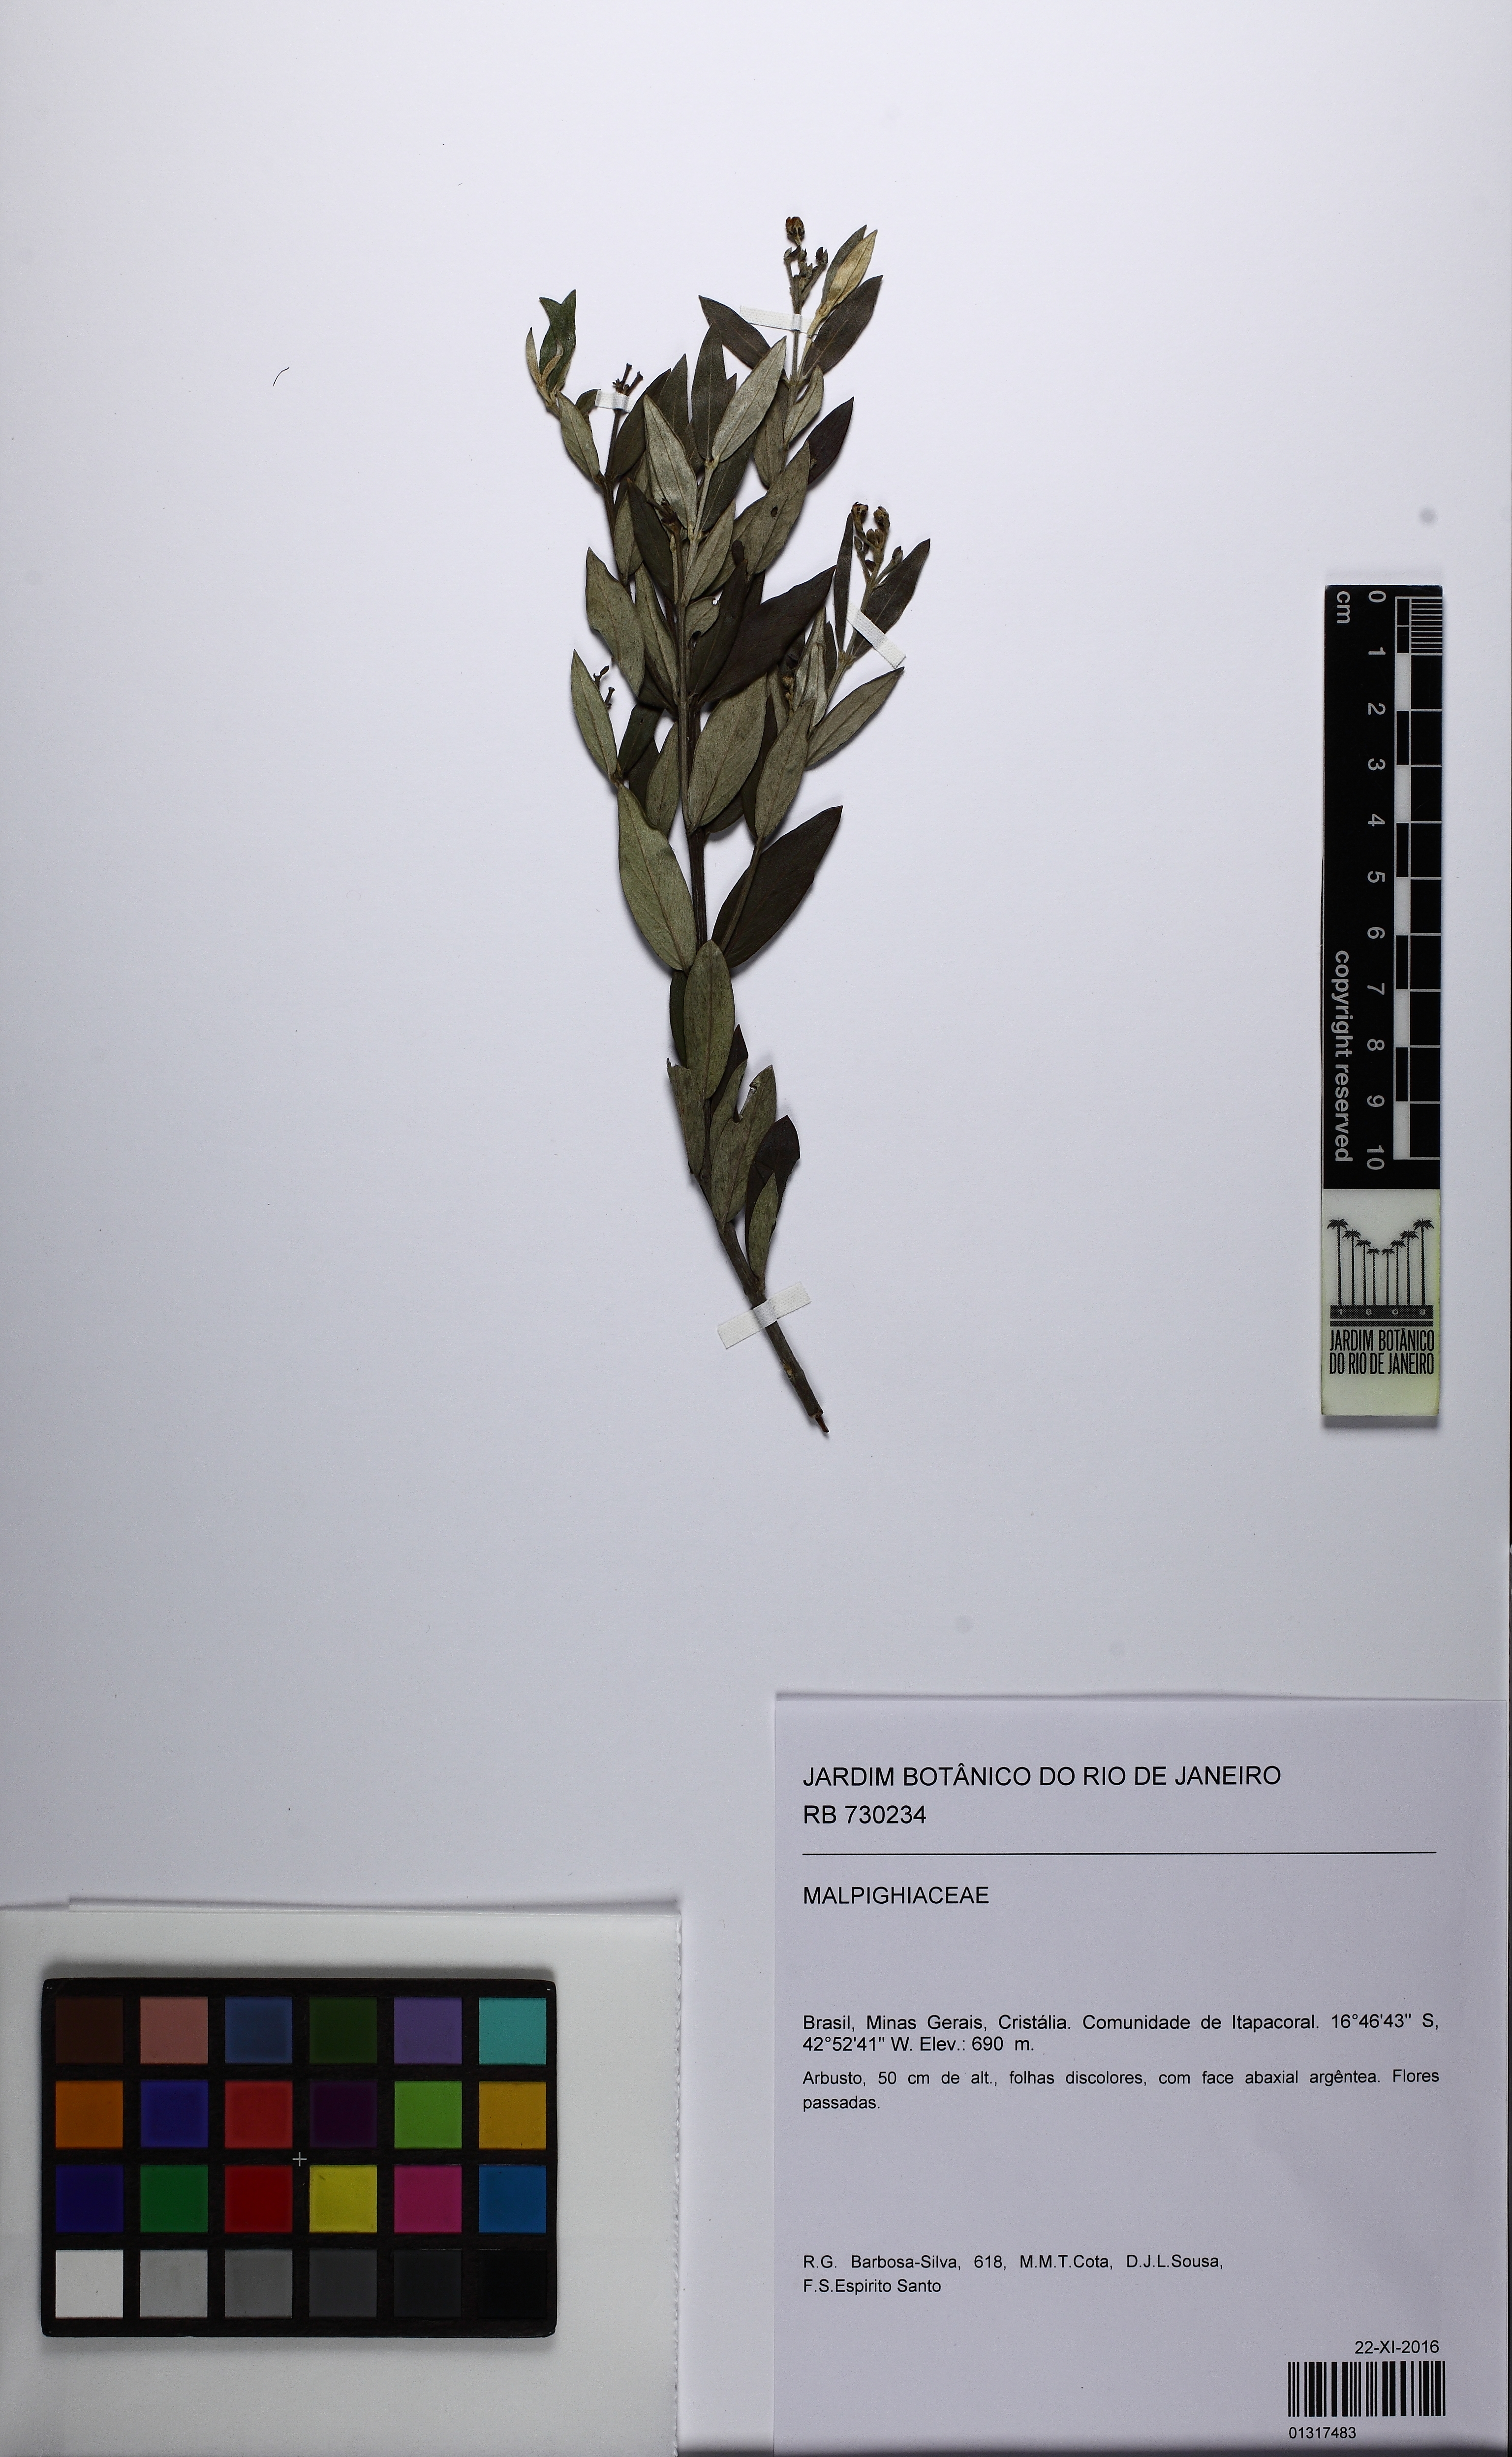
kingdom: Plantae
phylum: Tracheophyta
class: Magnoliopsida
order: Malpighiales
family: Malpighiaceae
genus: Glicophyllum
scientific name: Glicophyllum microphyllum
